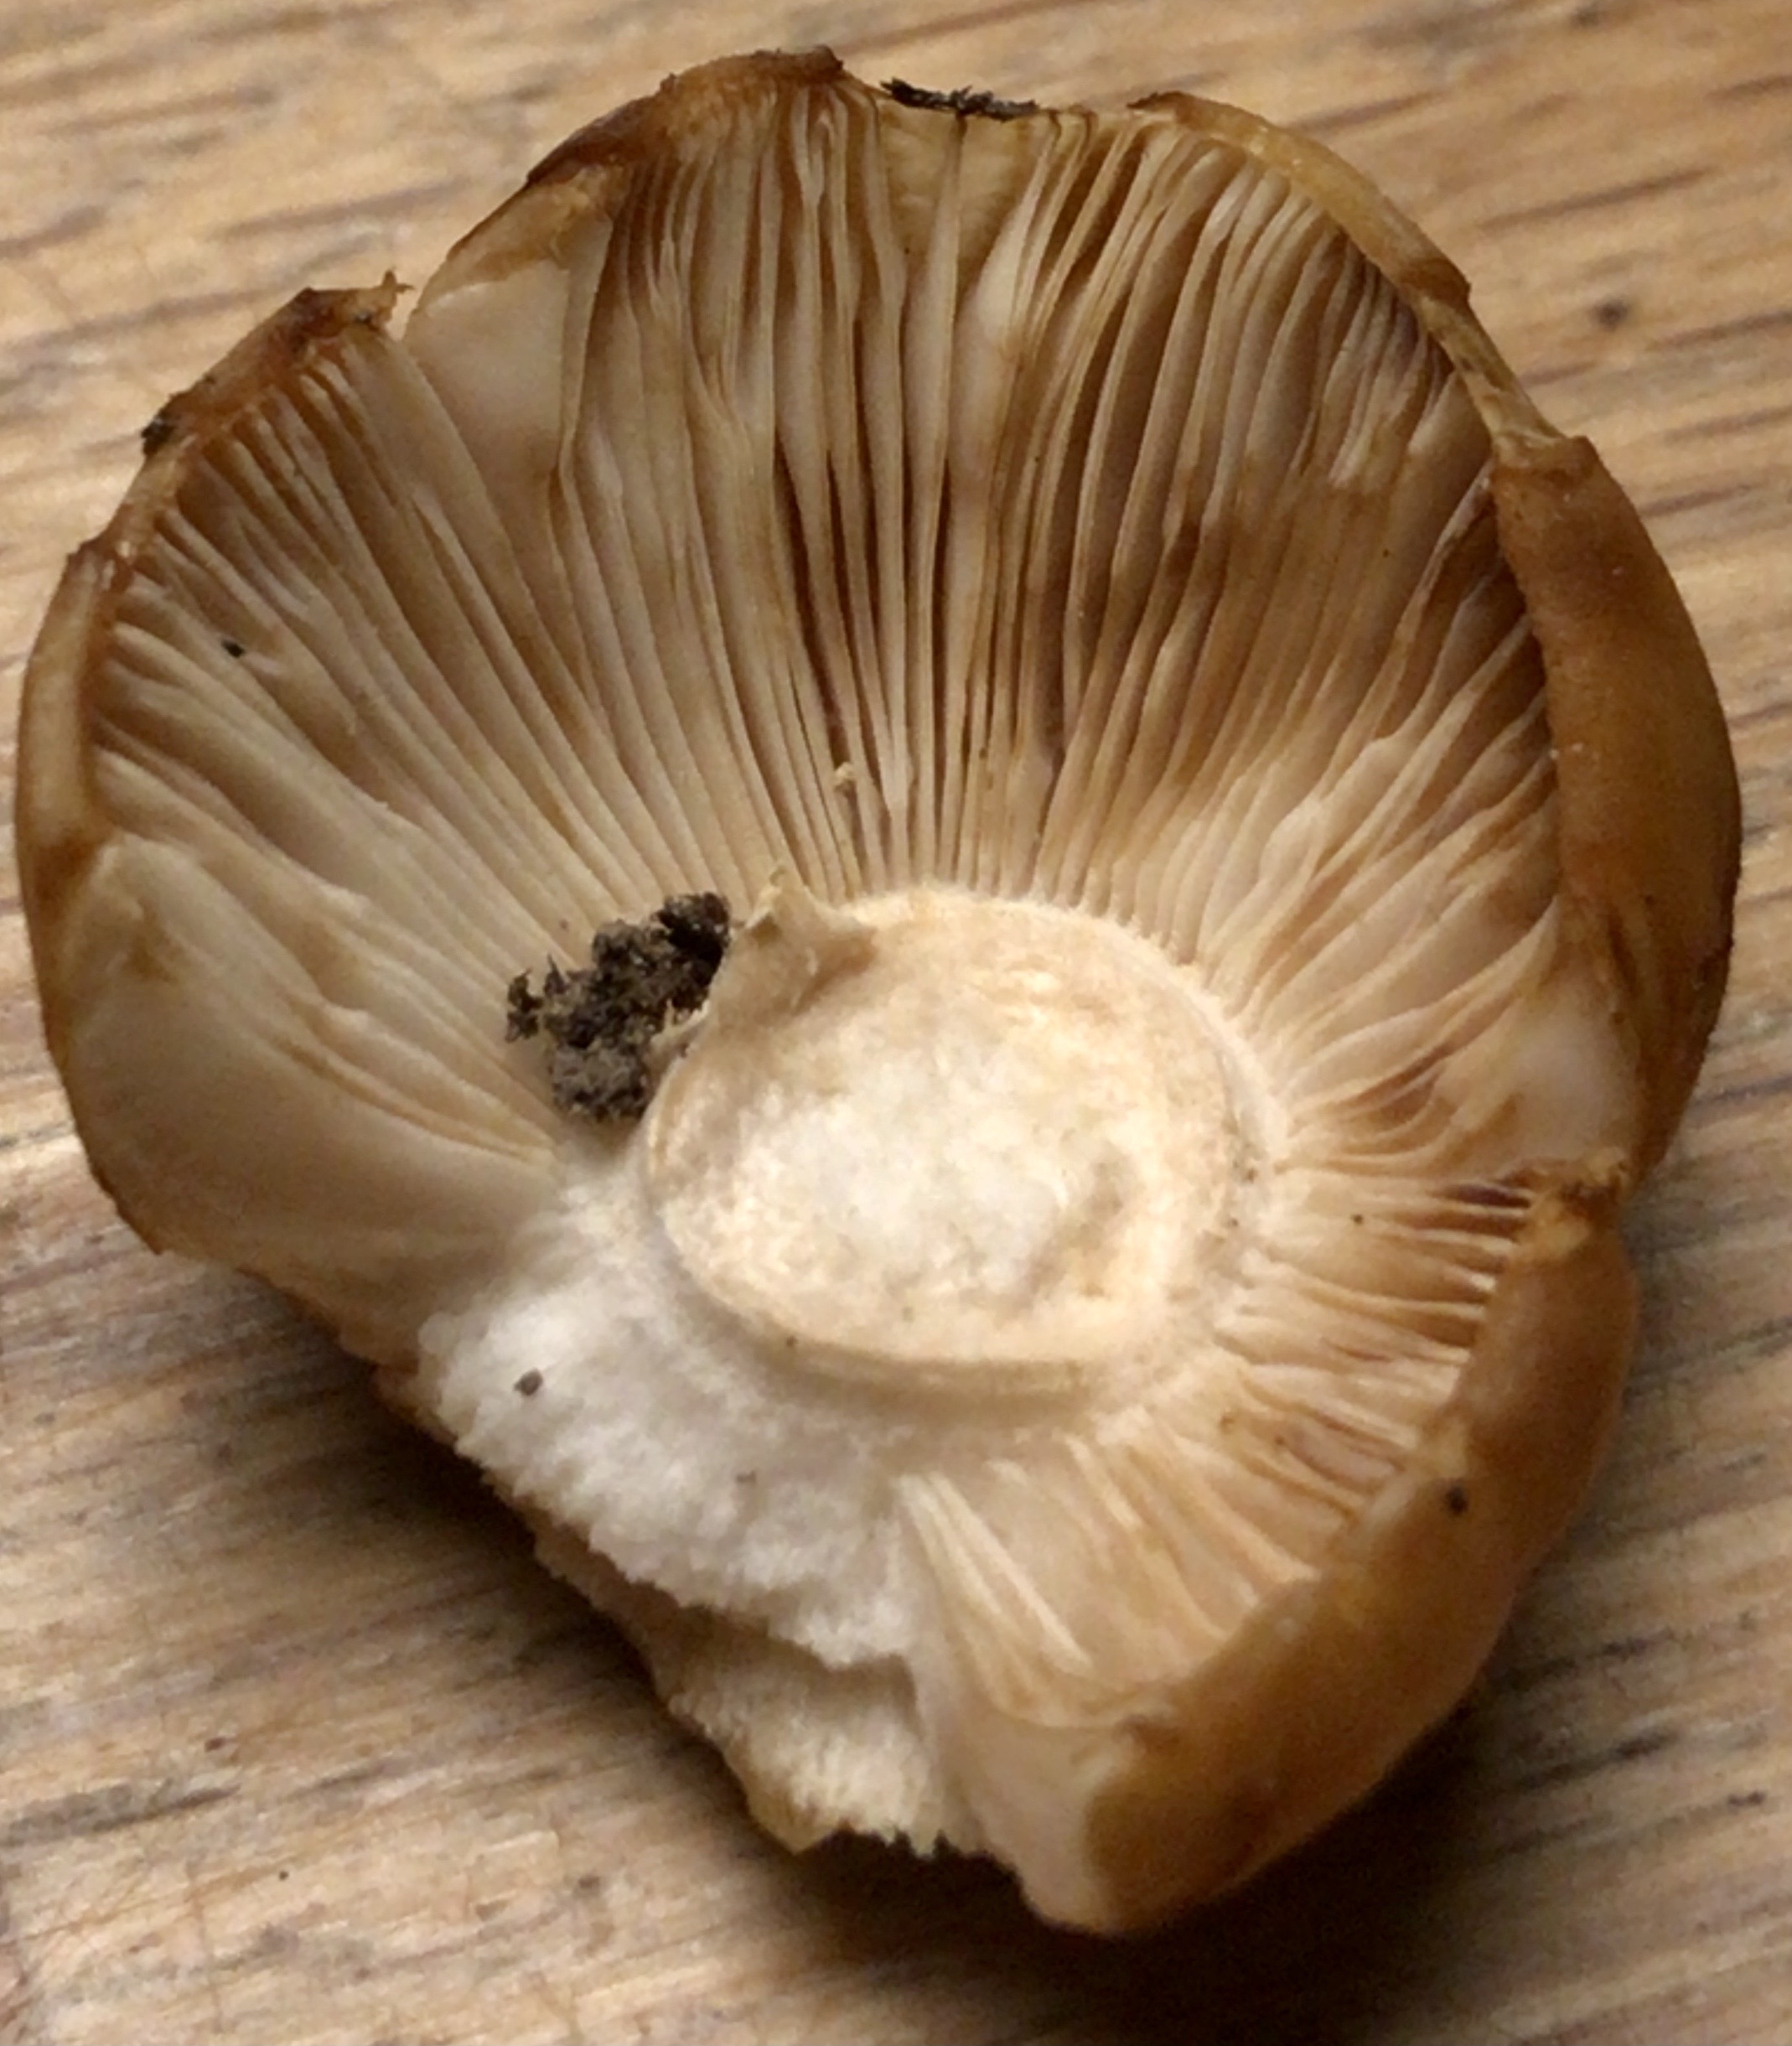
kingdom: Fungi
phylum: Basidiomycota
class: Agaricomycetes
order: Russulales
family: Russulaceae
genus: Russula
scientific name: Russula foetens
